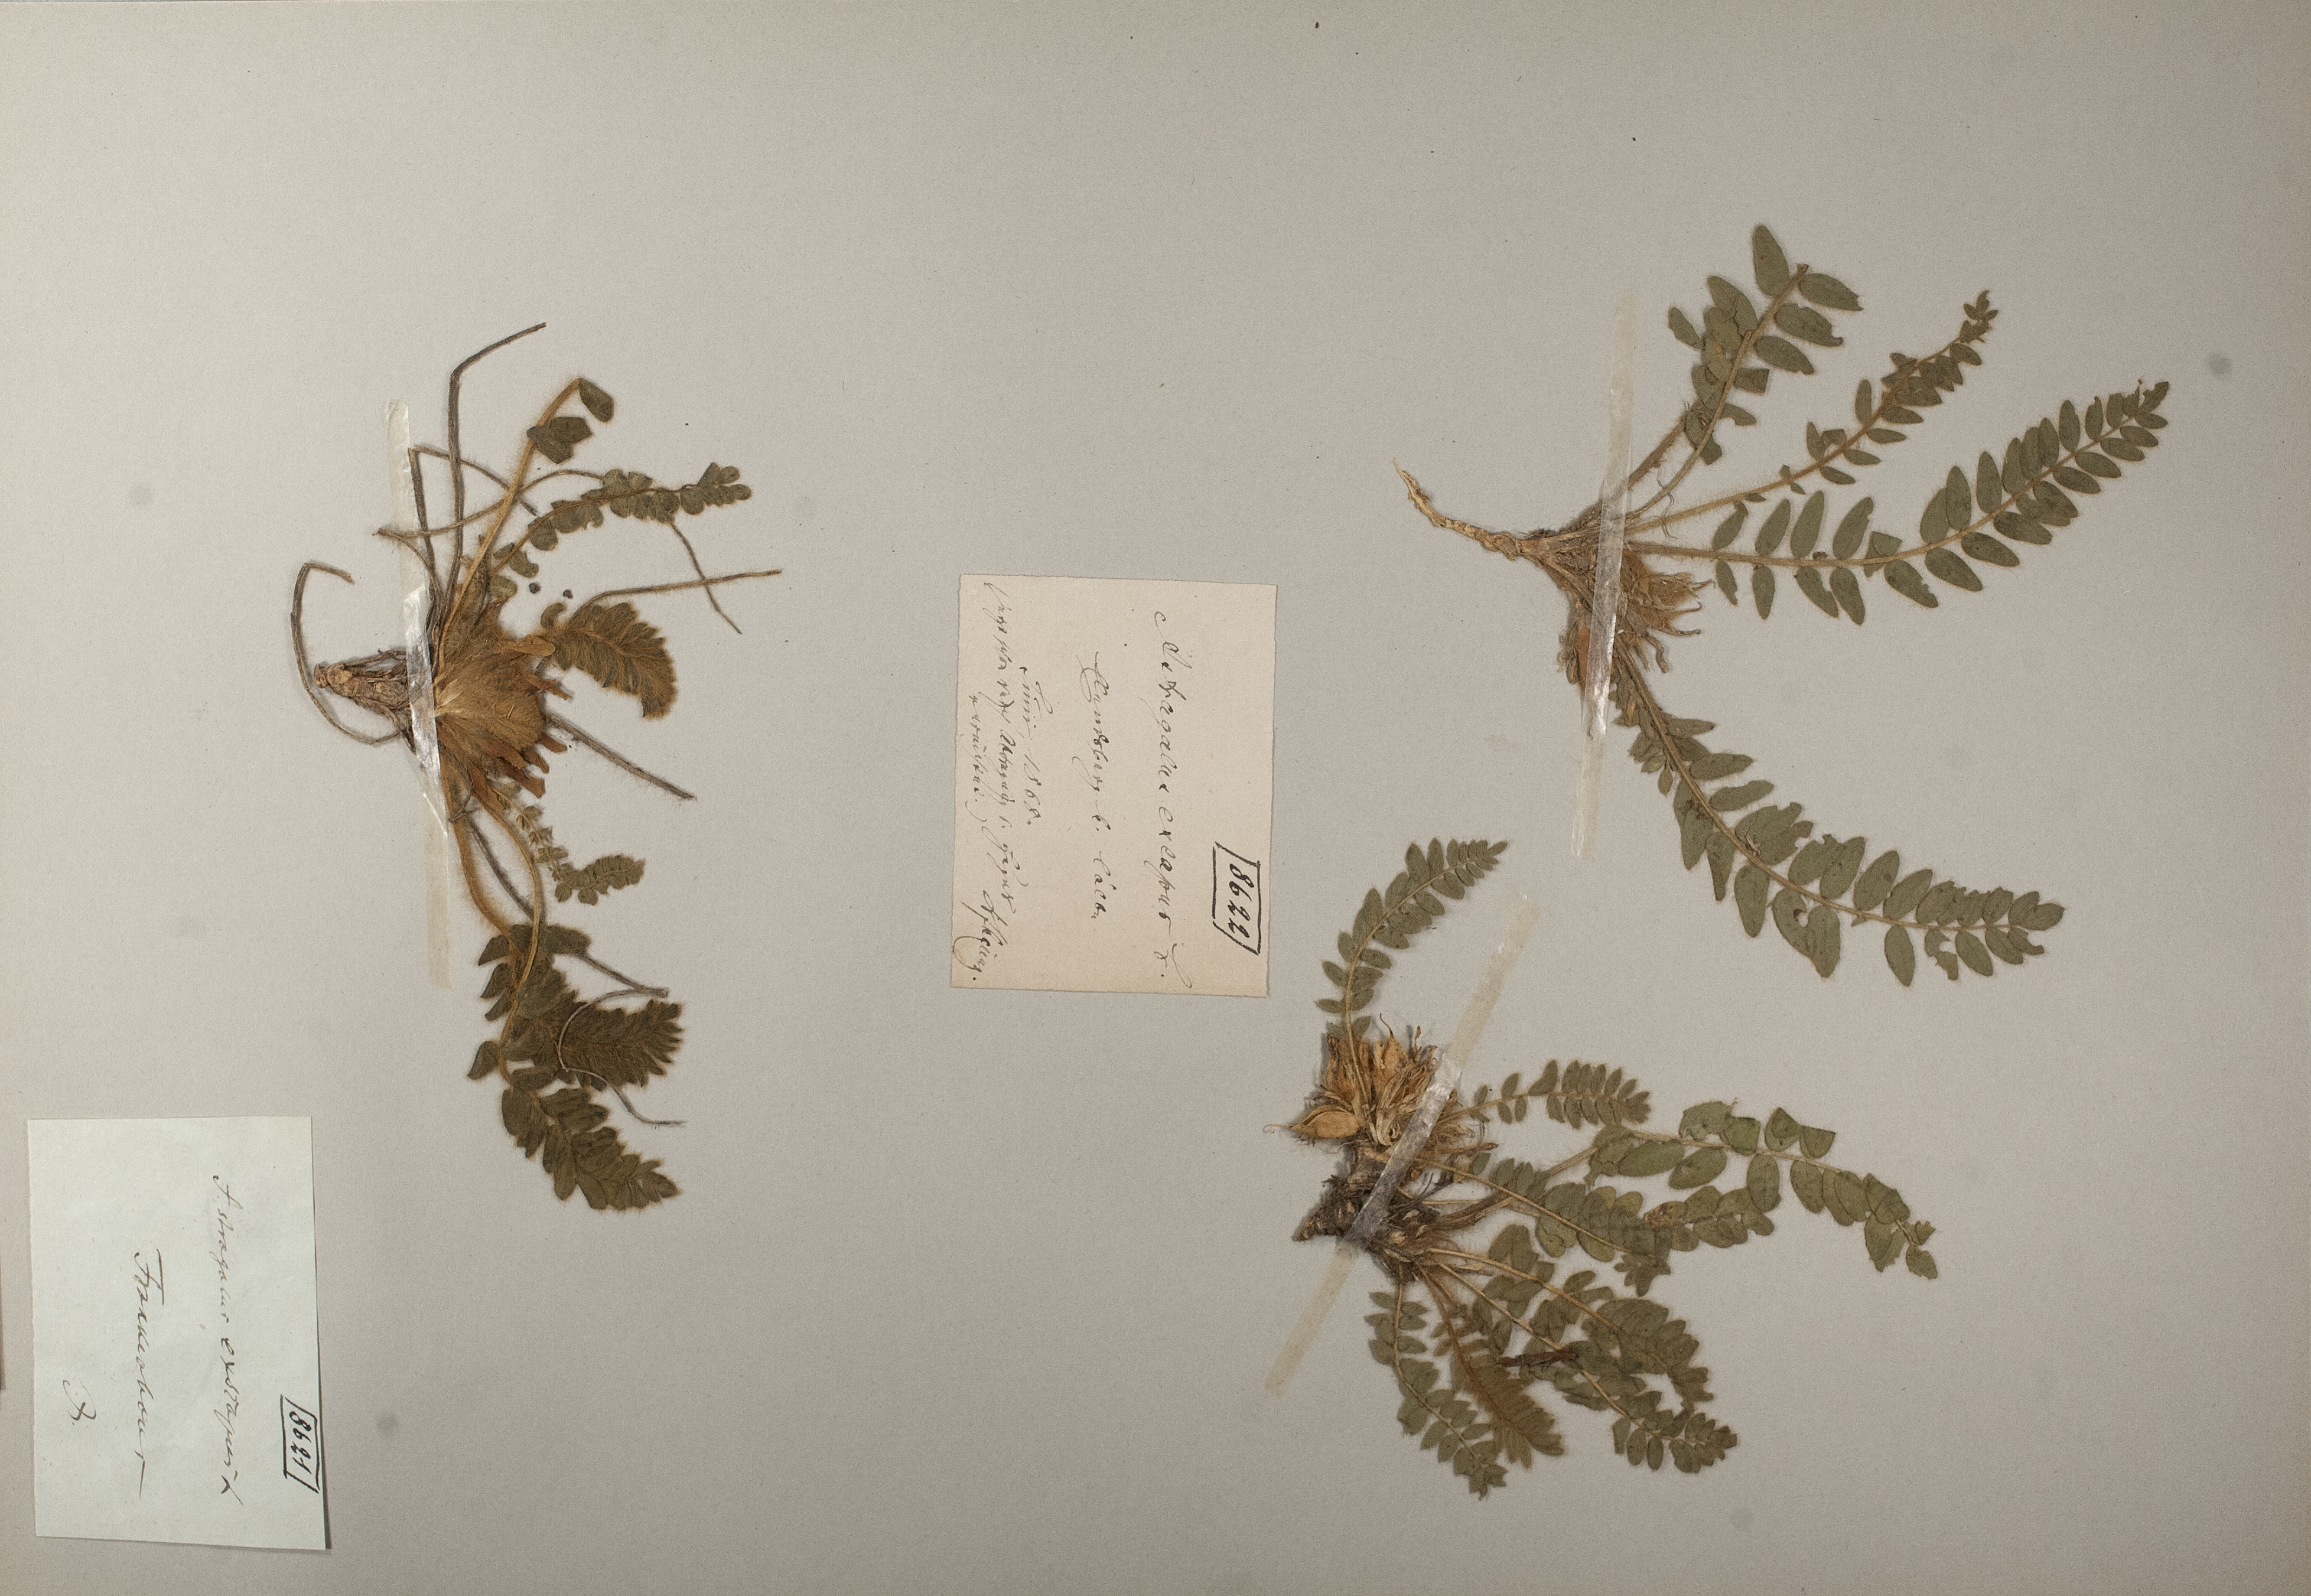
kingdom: Plantae
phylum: Tracheophyta
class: Magnoliopsida
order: Fabales
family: Fabaceae
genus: Astragalus
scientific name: Astragalus exscapus
